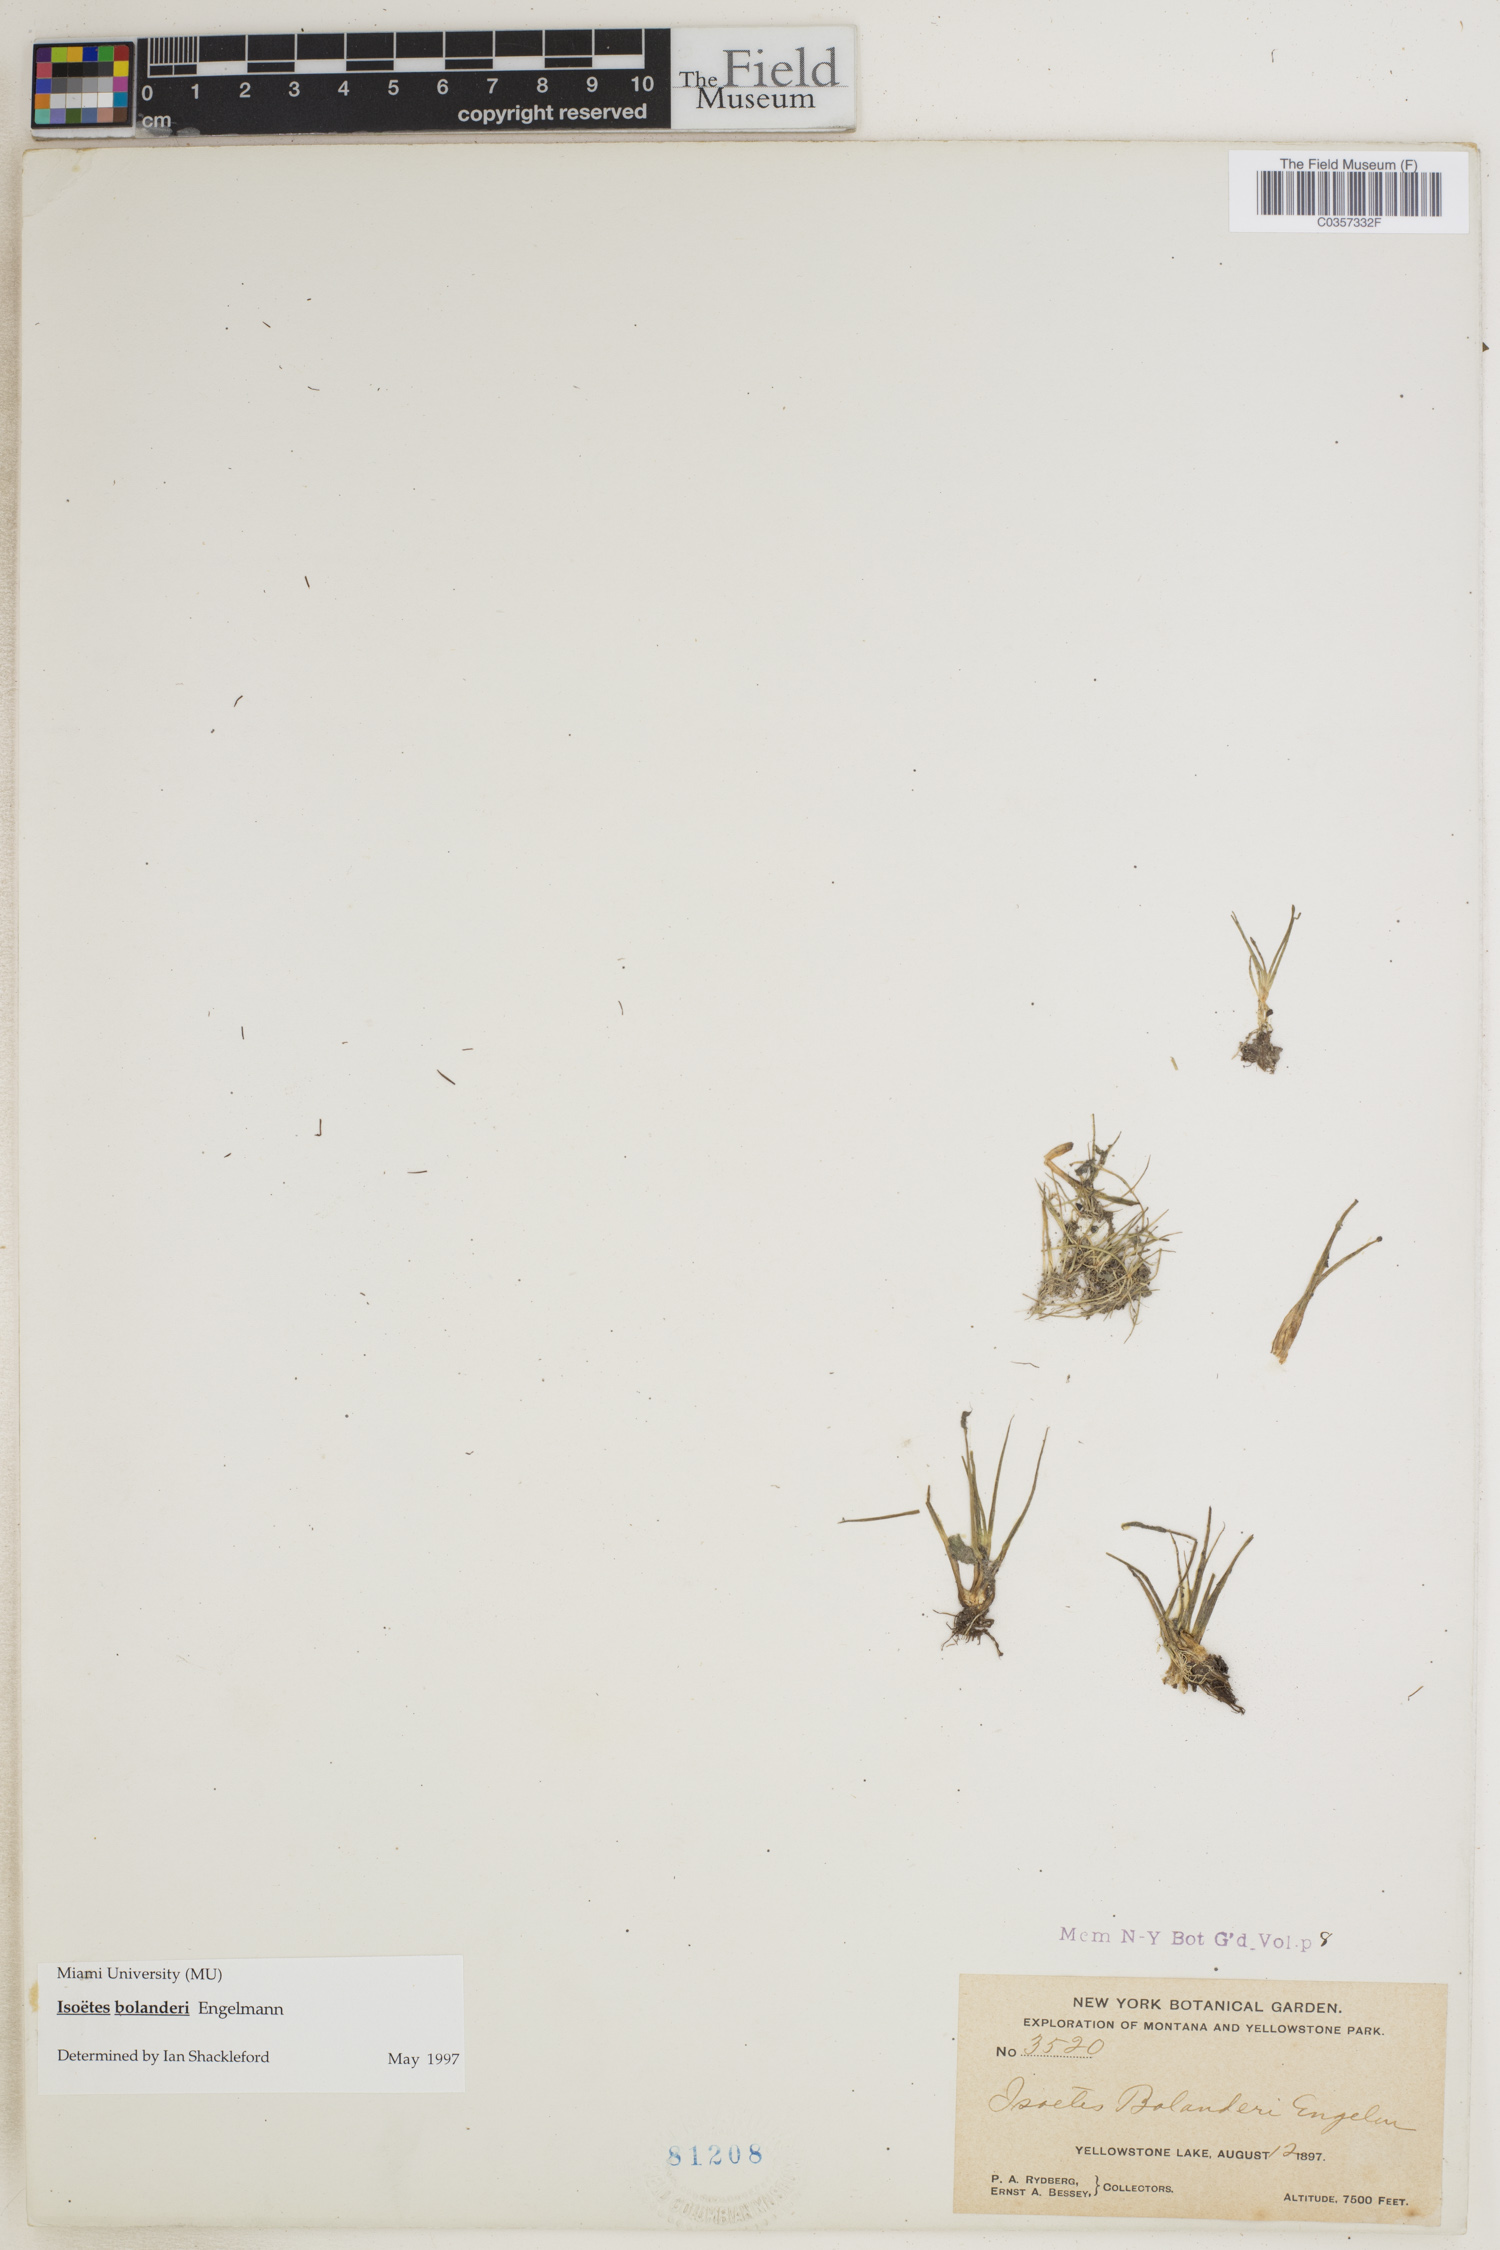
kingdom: Plantae
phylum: Tracheophyta
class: Lycopodiopsida
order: Isoetales
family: Isoetaceae
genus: Isoetes
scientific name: Isoetes bolanderi
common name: Bolander's quillwort
